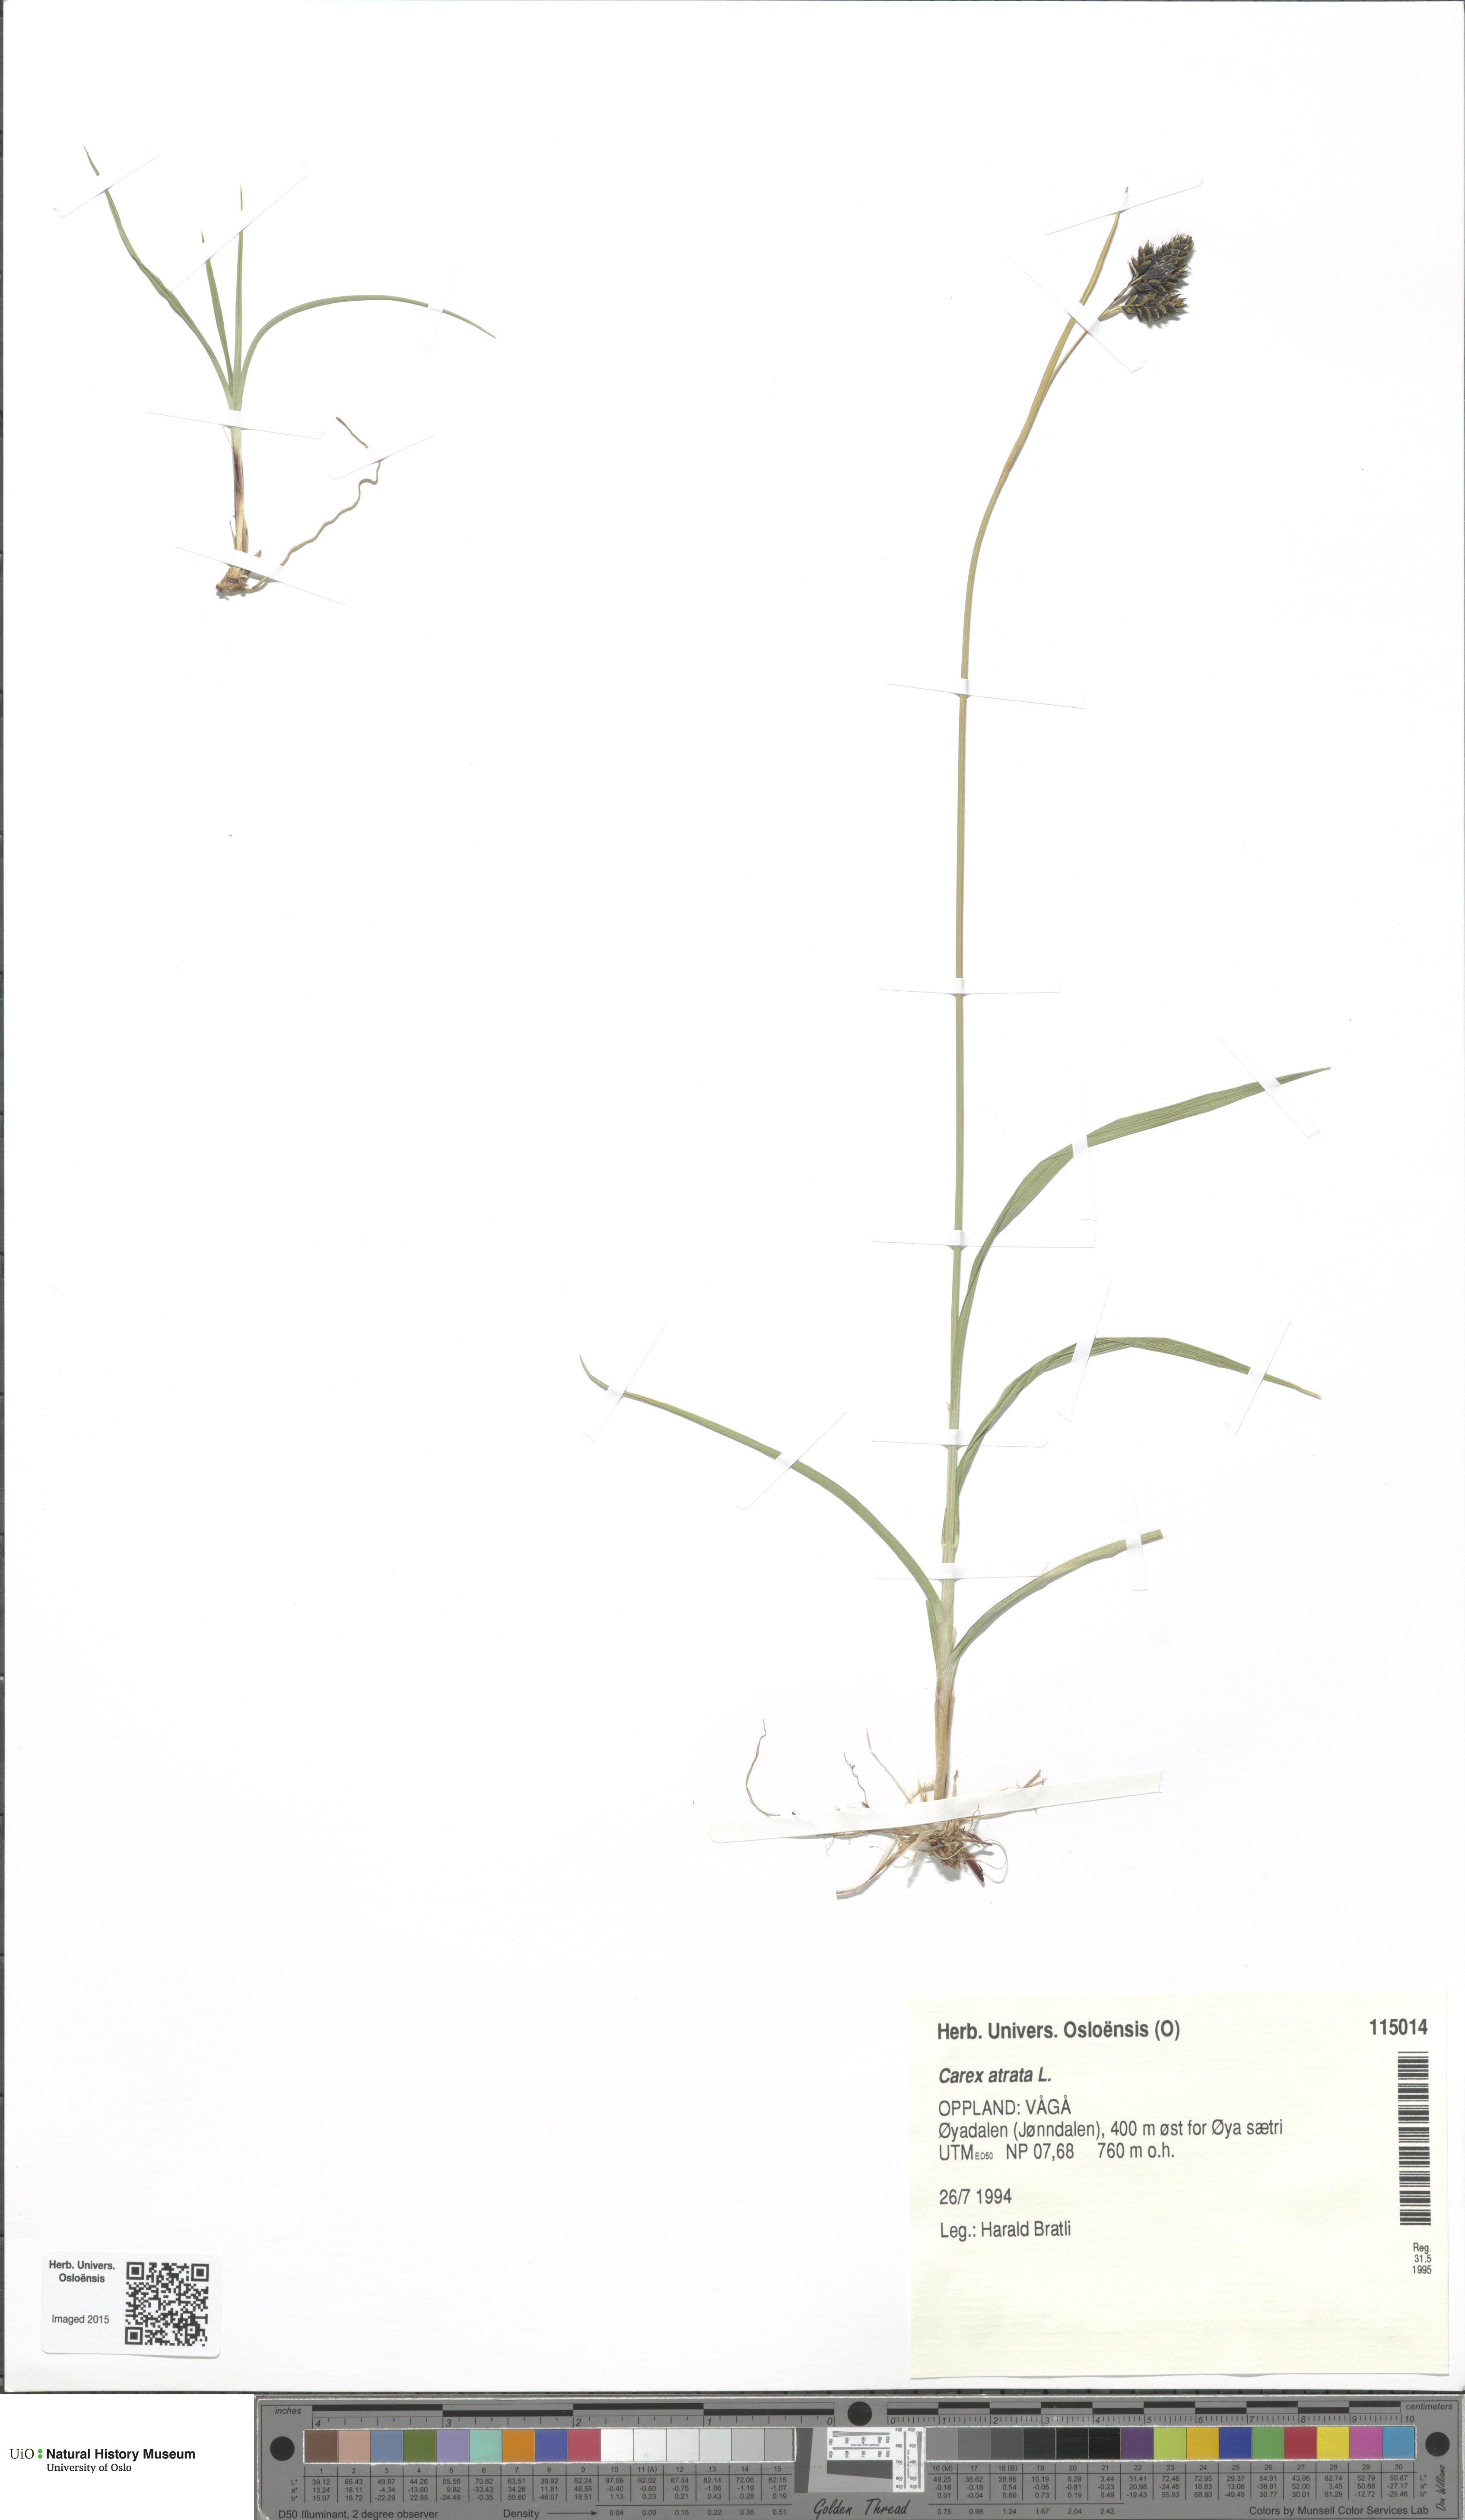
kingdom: Plantae
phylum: Tracheophyta
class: Liliopsida
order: Poales
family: Cyperaceae
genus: Carex
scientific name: Carex atrata
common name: Black alpine sedge
